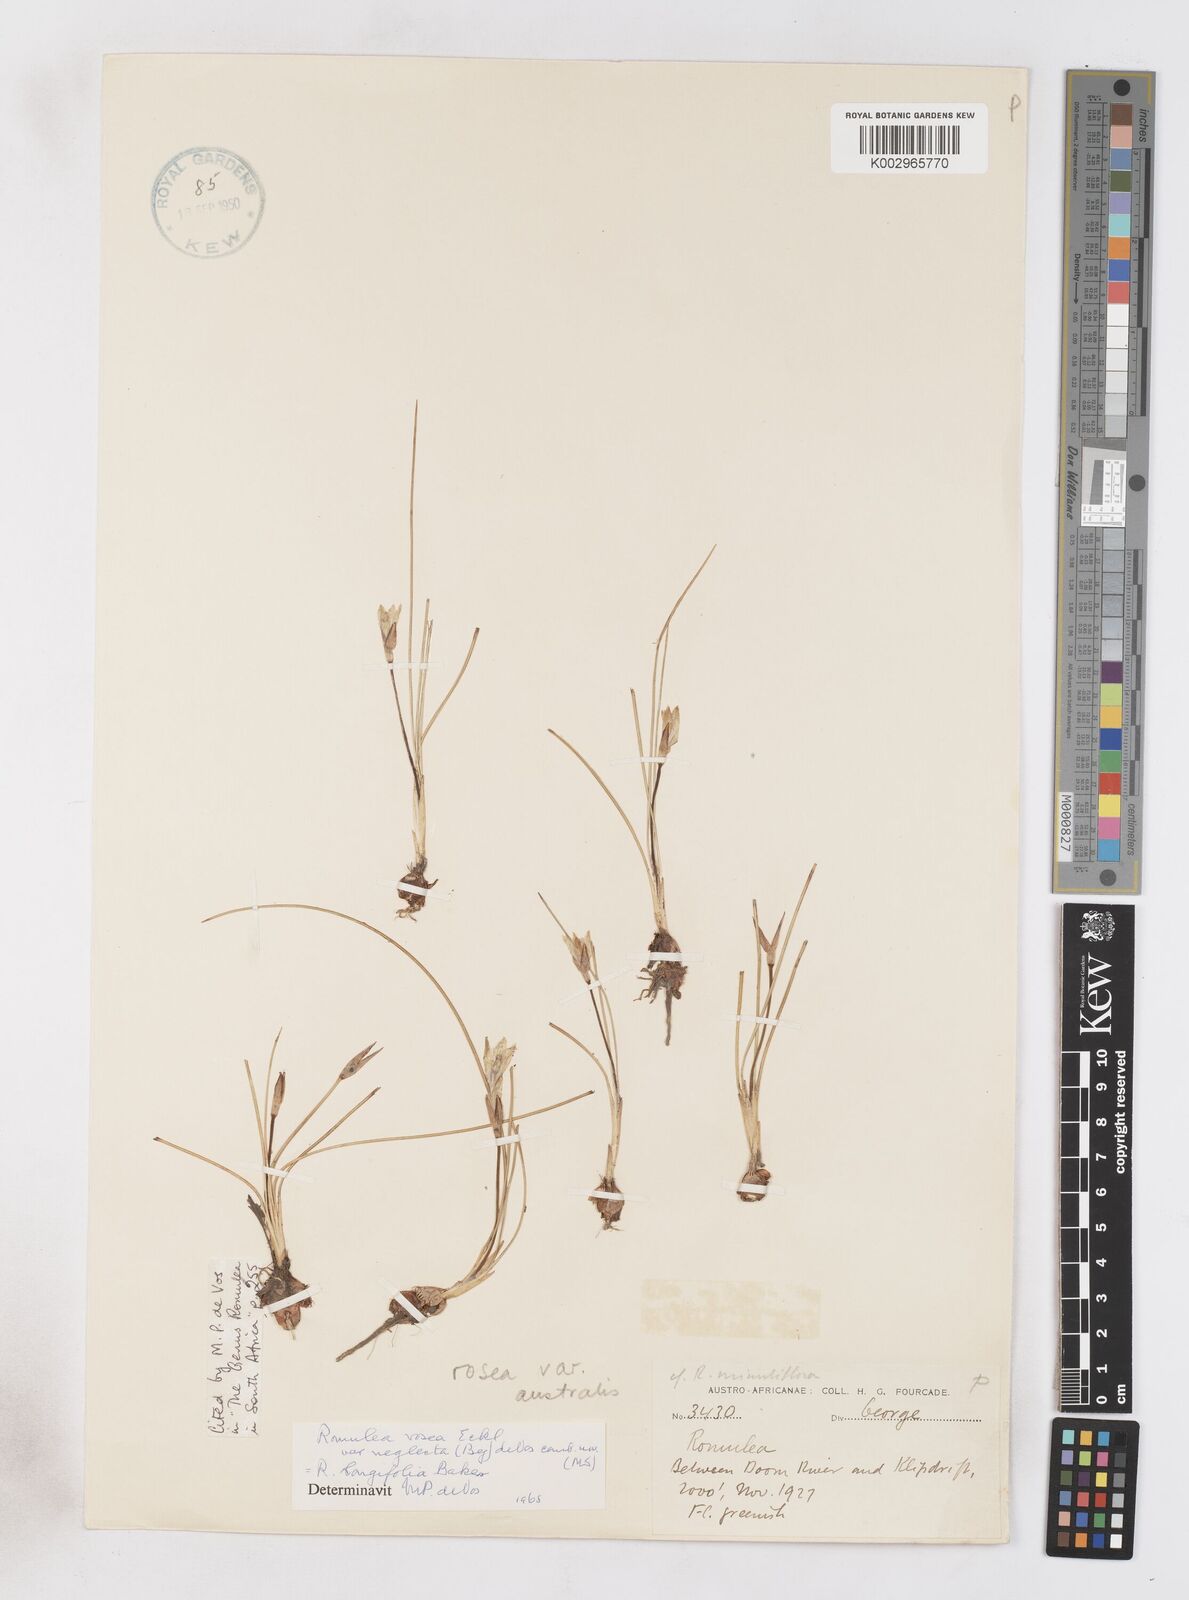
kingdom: Plantae
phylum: Tracheophyta
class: Liliopsida
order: Asparagales
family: Iridaceae
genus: Romulea
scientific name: Romulea rosea
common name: Oniongrass
